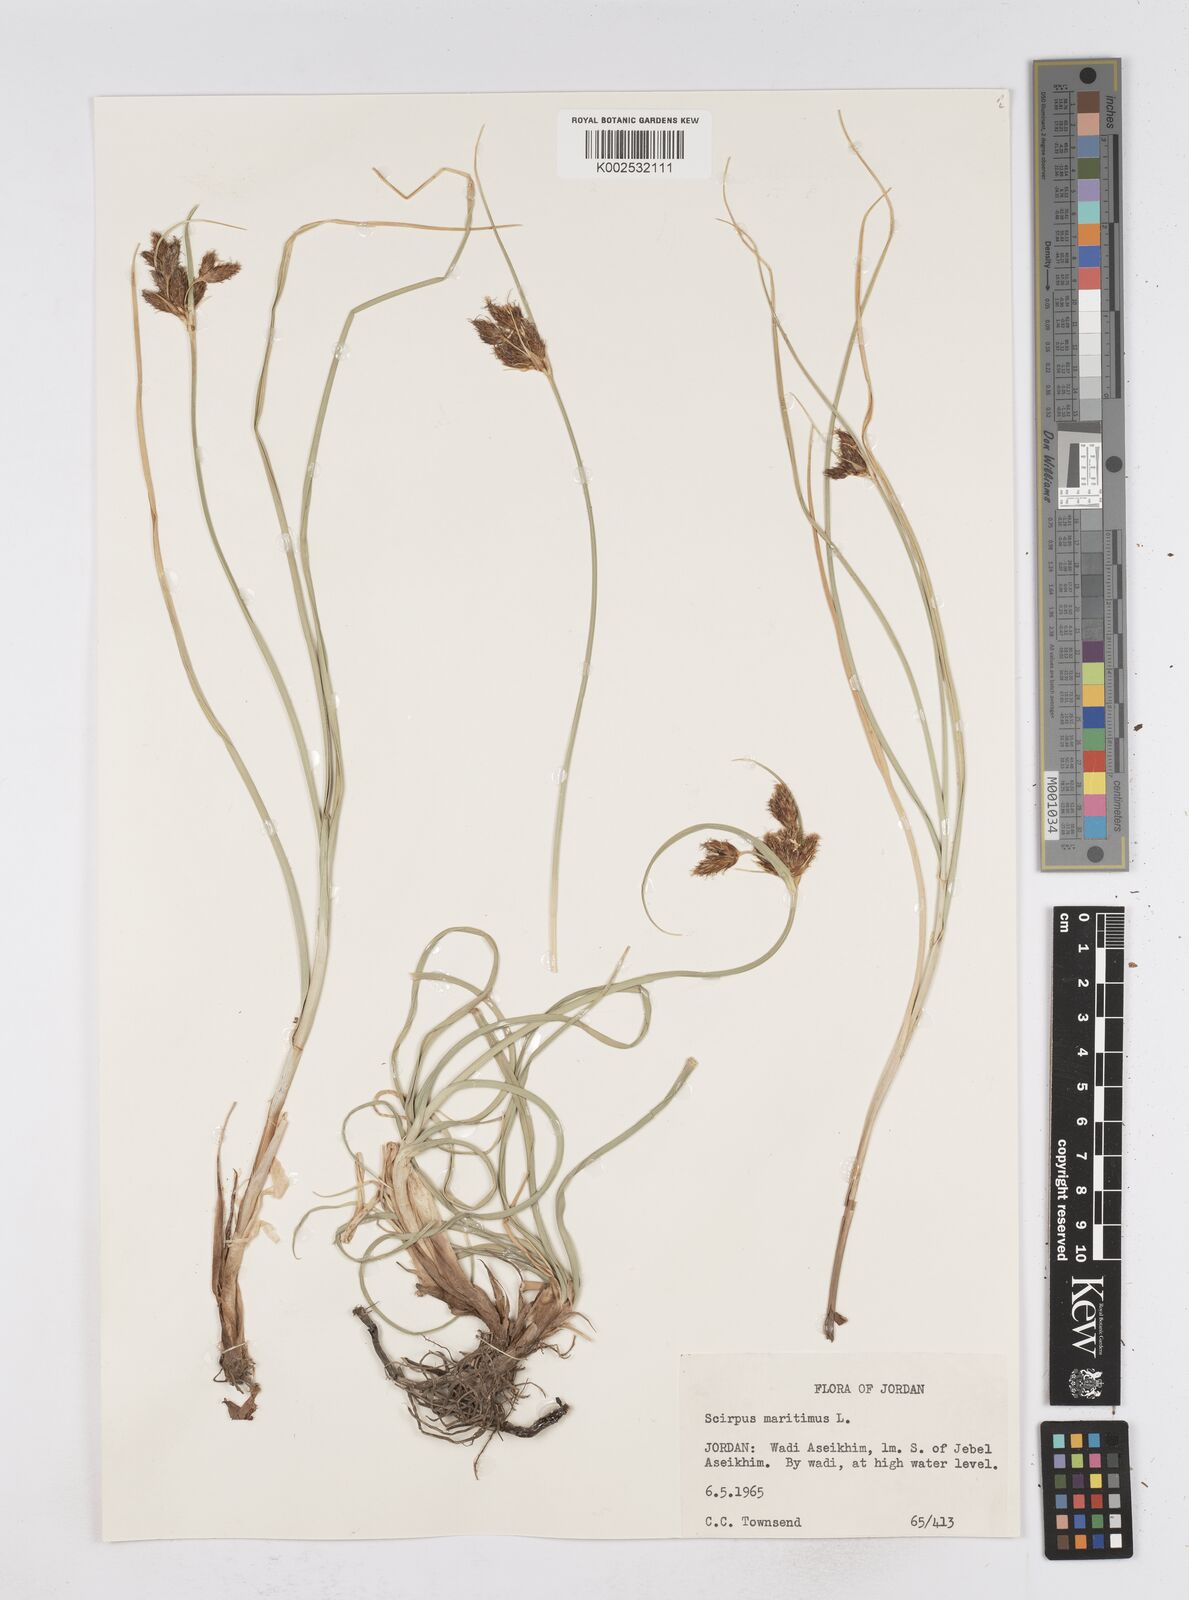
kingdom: Plantae
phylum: Tracheophyta
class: Liliopsida
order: Poales
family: Cyperaceae
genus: Bolboschoenus
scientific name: Bolboschoenus maritimus
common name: Sea club-rush
